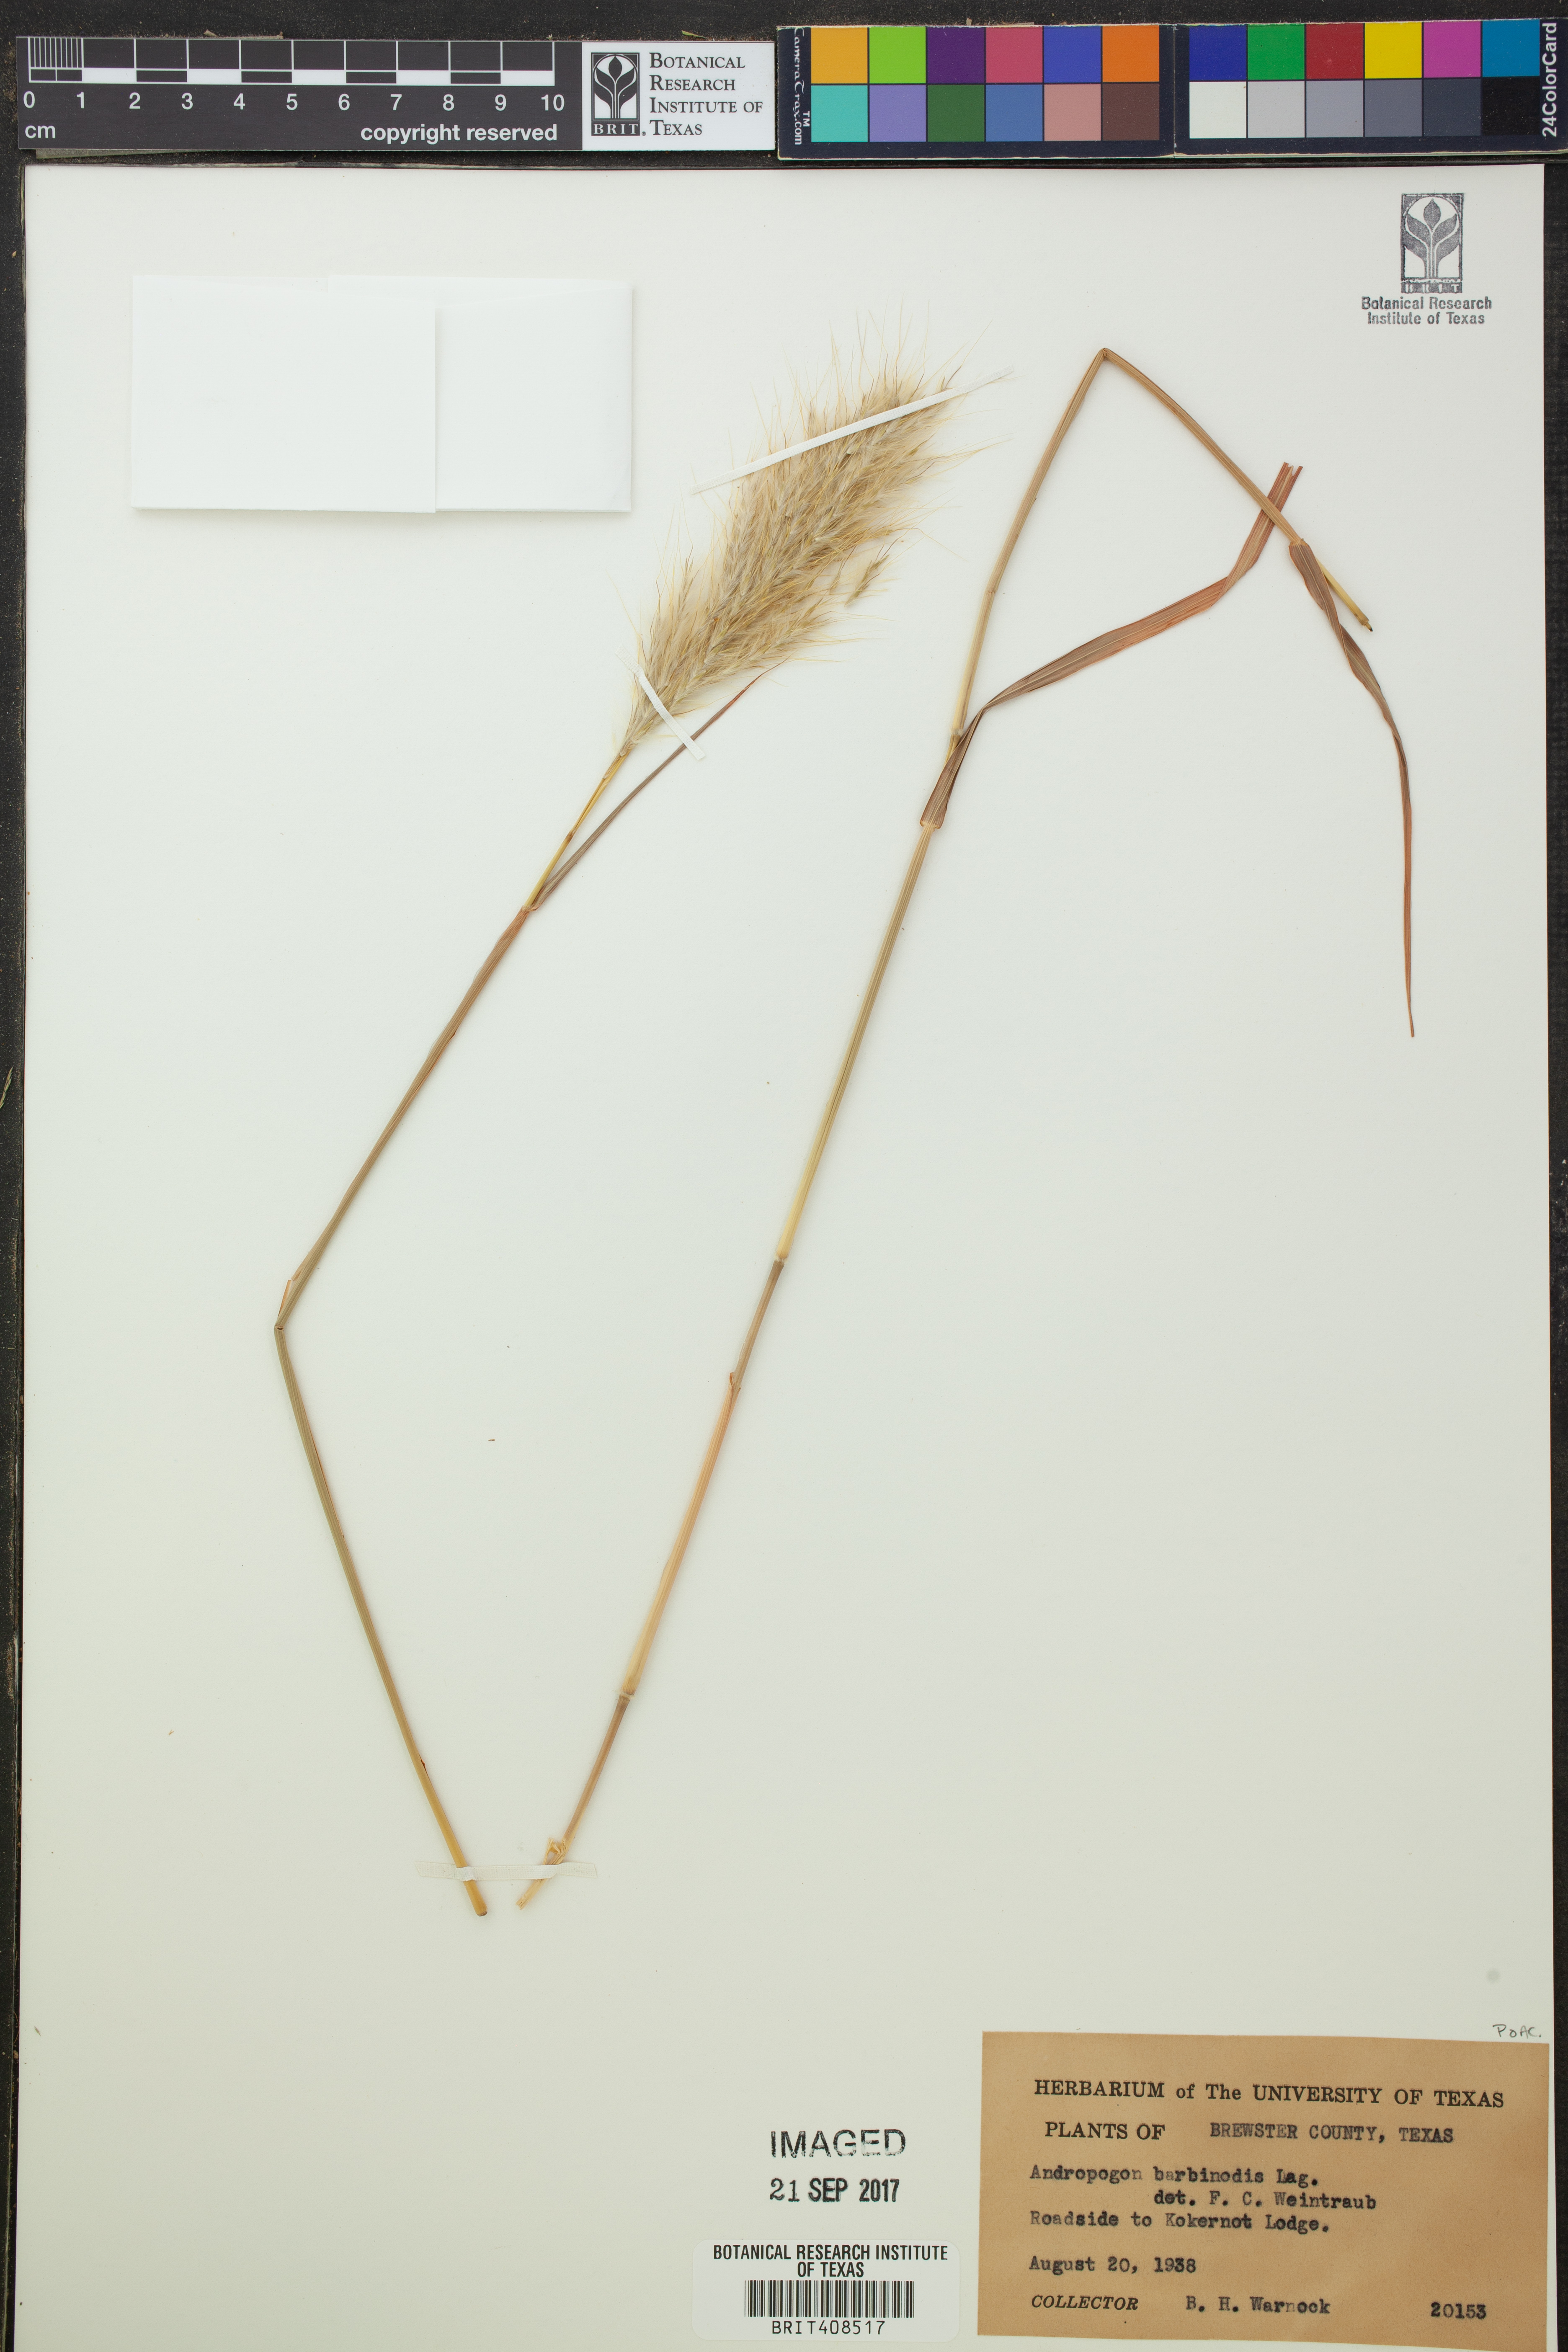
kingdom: Plantae
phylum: Tracheophyta
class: Liliopsida
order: Poales
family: Poaceae
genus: Bothriochloa
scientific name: Bothriochloa barbinodis
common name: Cane bluestem
